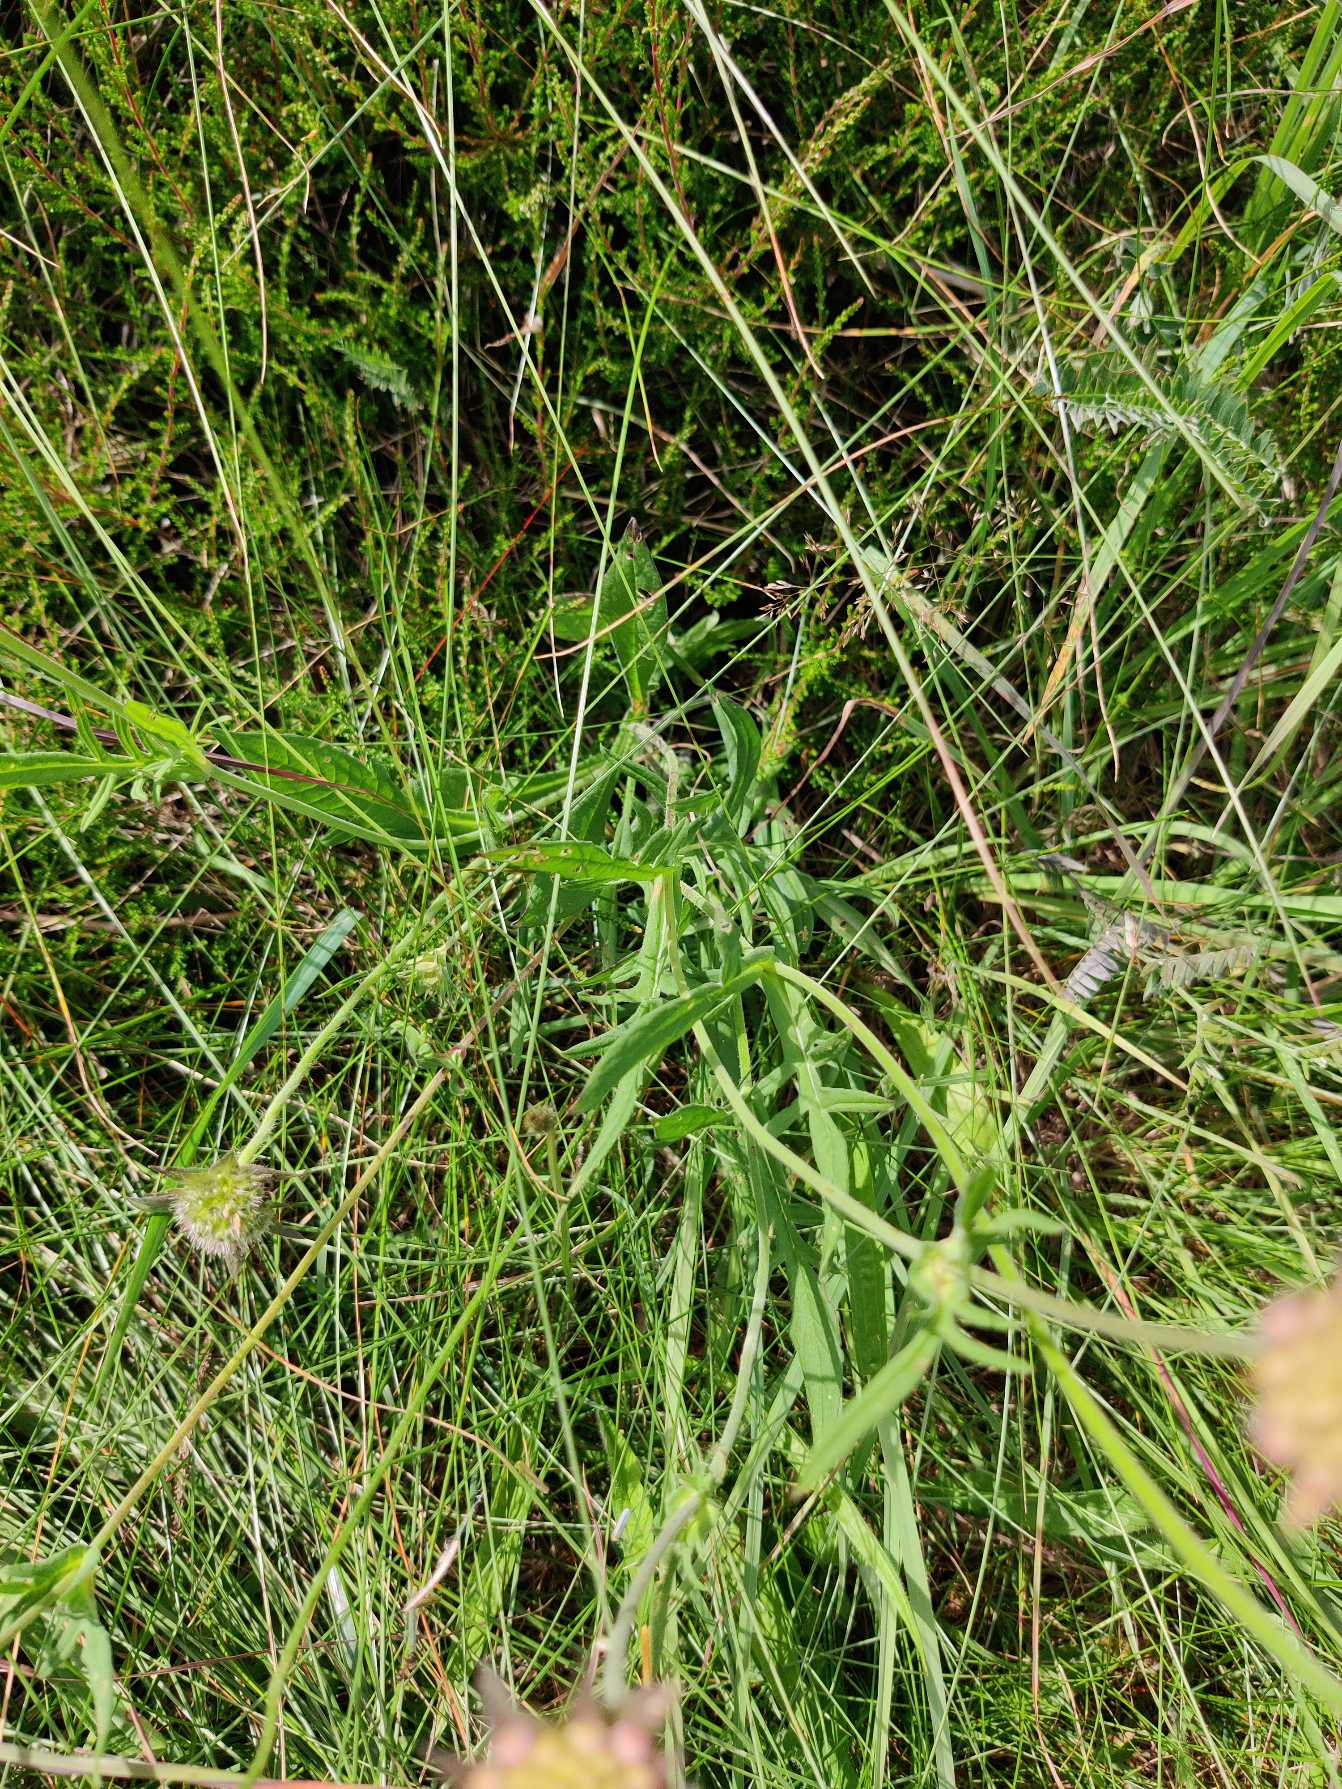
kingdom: Plantae
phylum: Tracheophyta
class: Magnoliopsida
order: Dipsacales
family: Caprifoliaceae
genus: Knautia
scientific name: Knautia arvensis
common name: Blåhat
